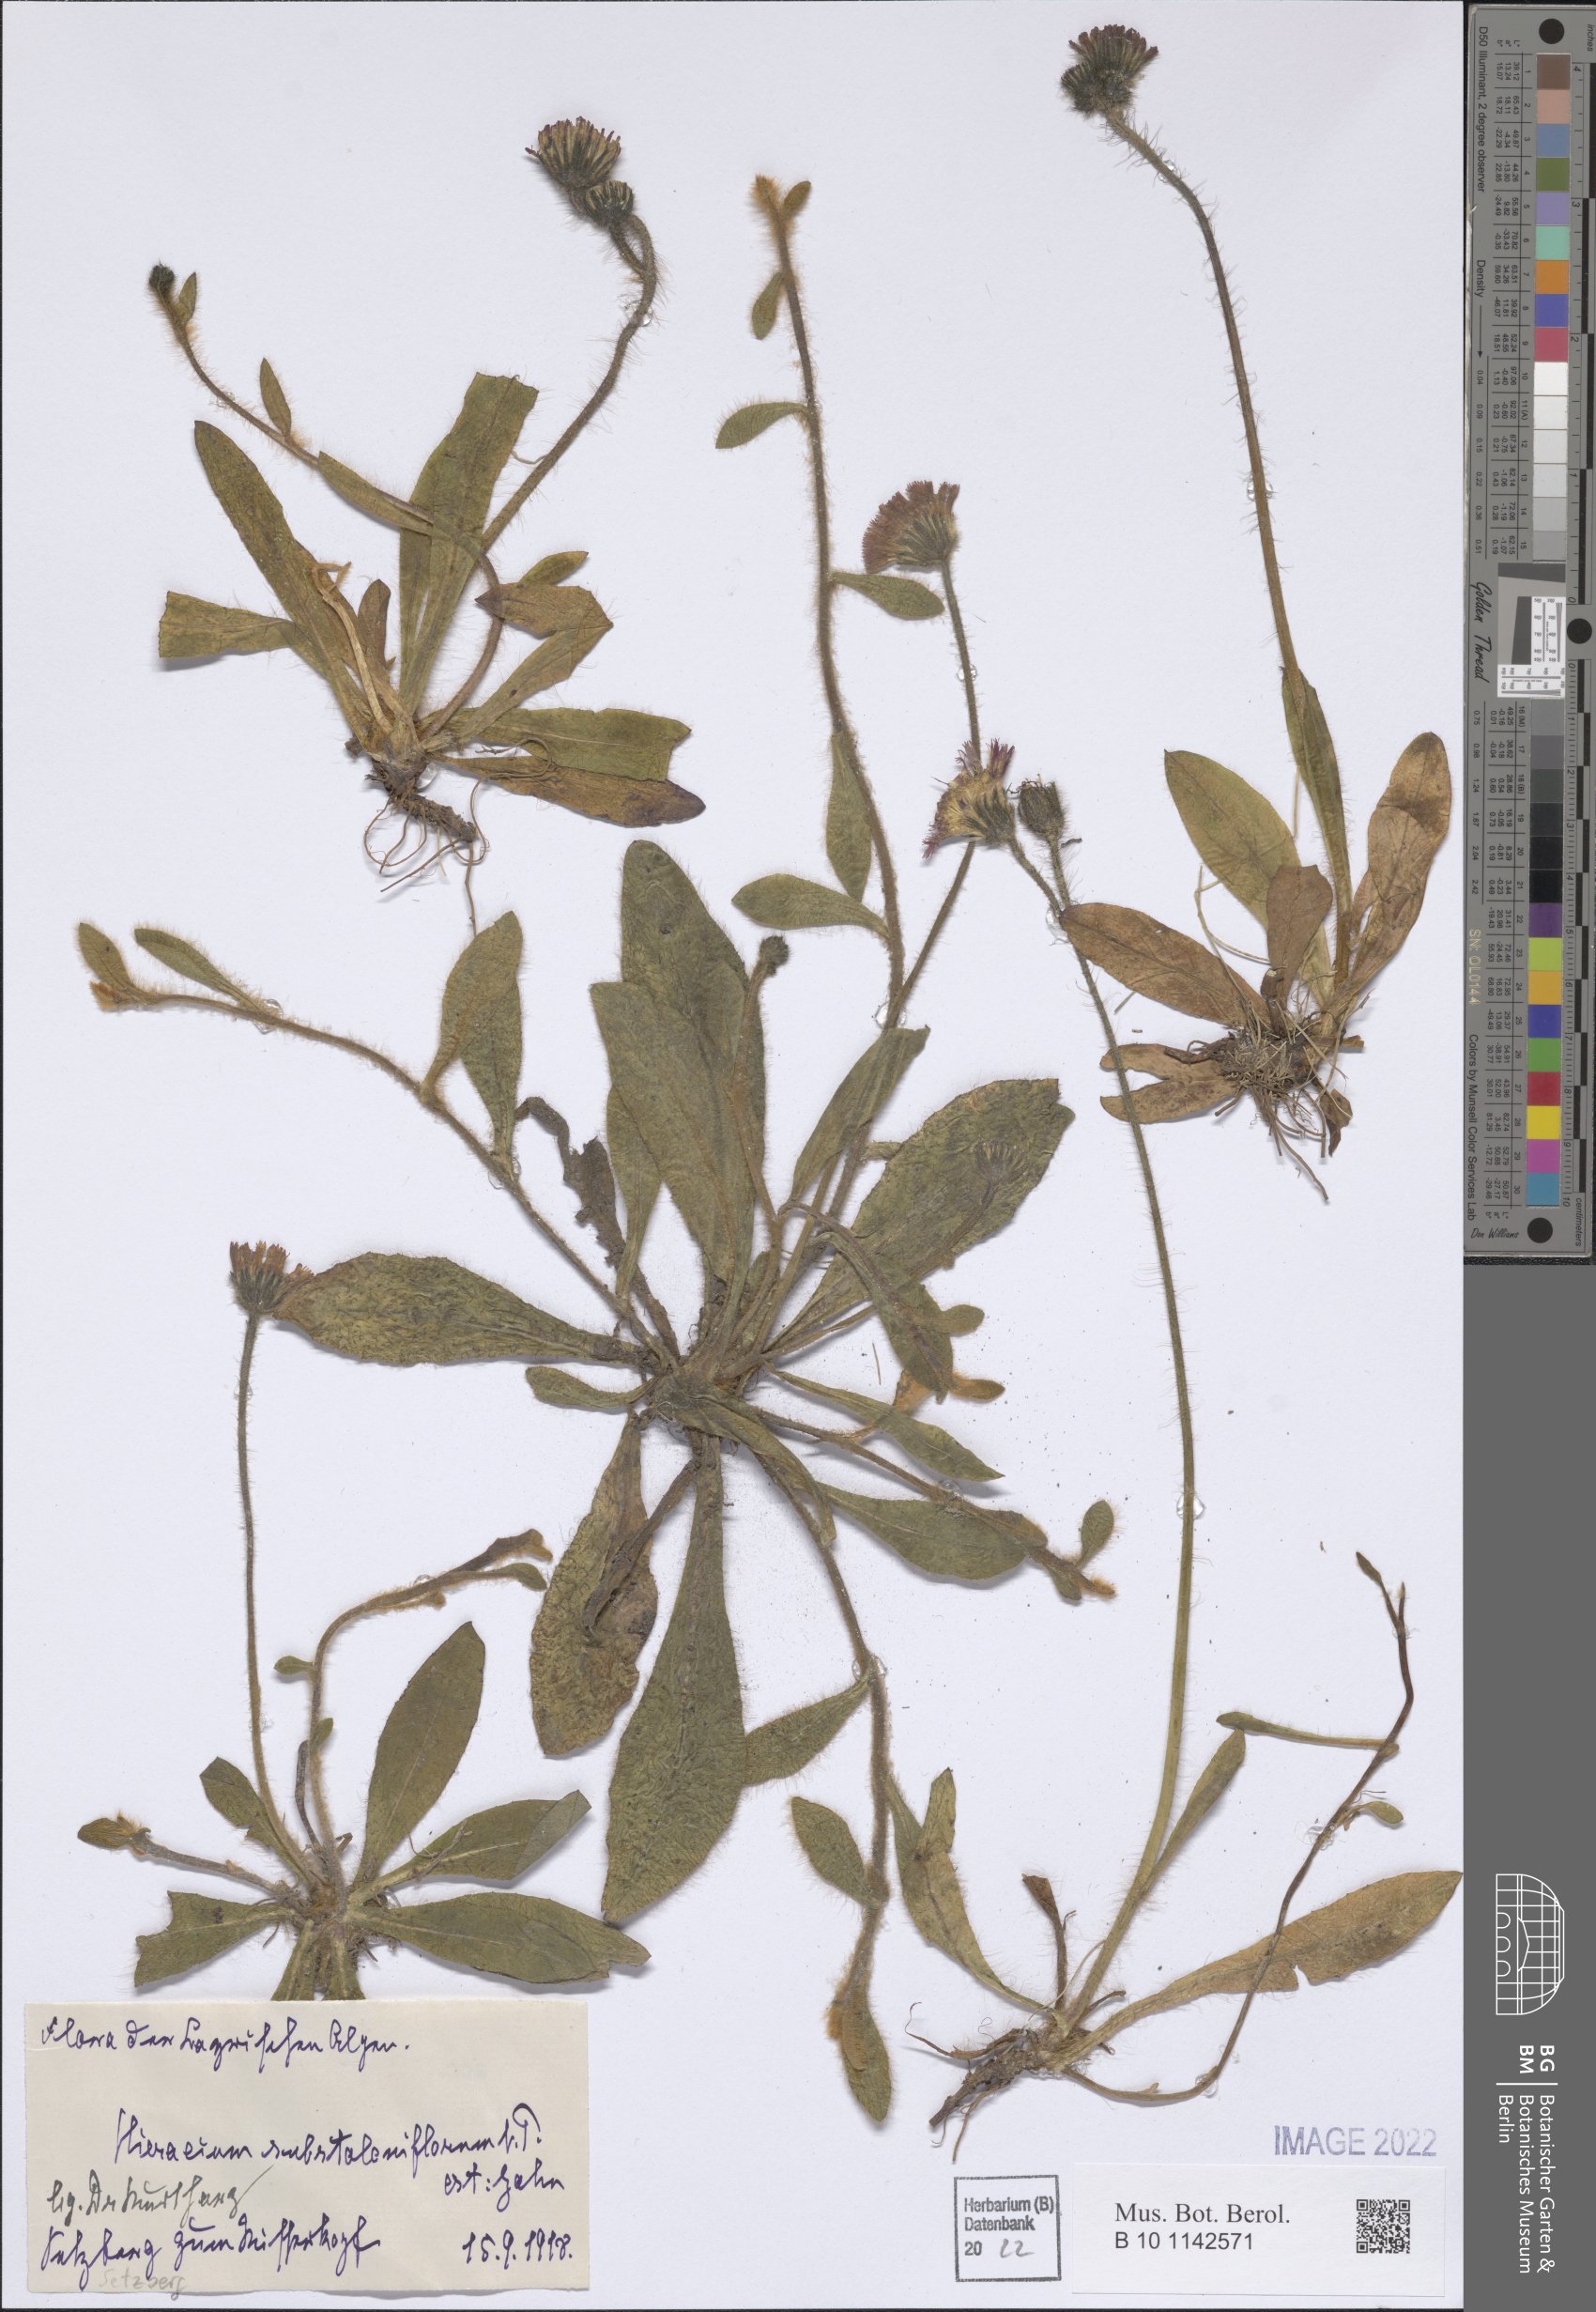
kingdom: Plantae
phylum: Tracheophyta
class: Magnoliopsida
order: Asterales
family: Asteraceae
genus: Pilosella
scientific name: Pilosella rubra
